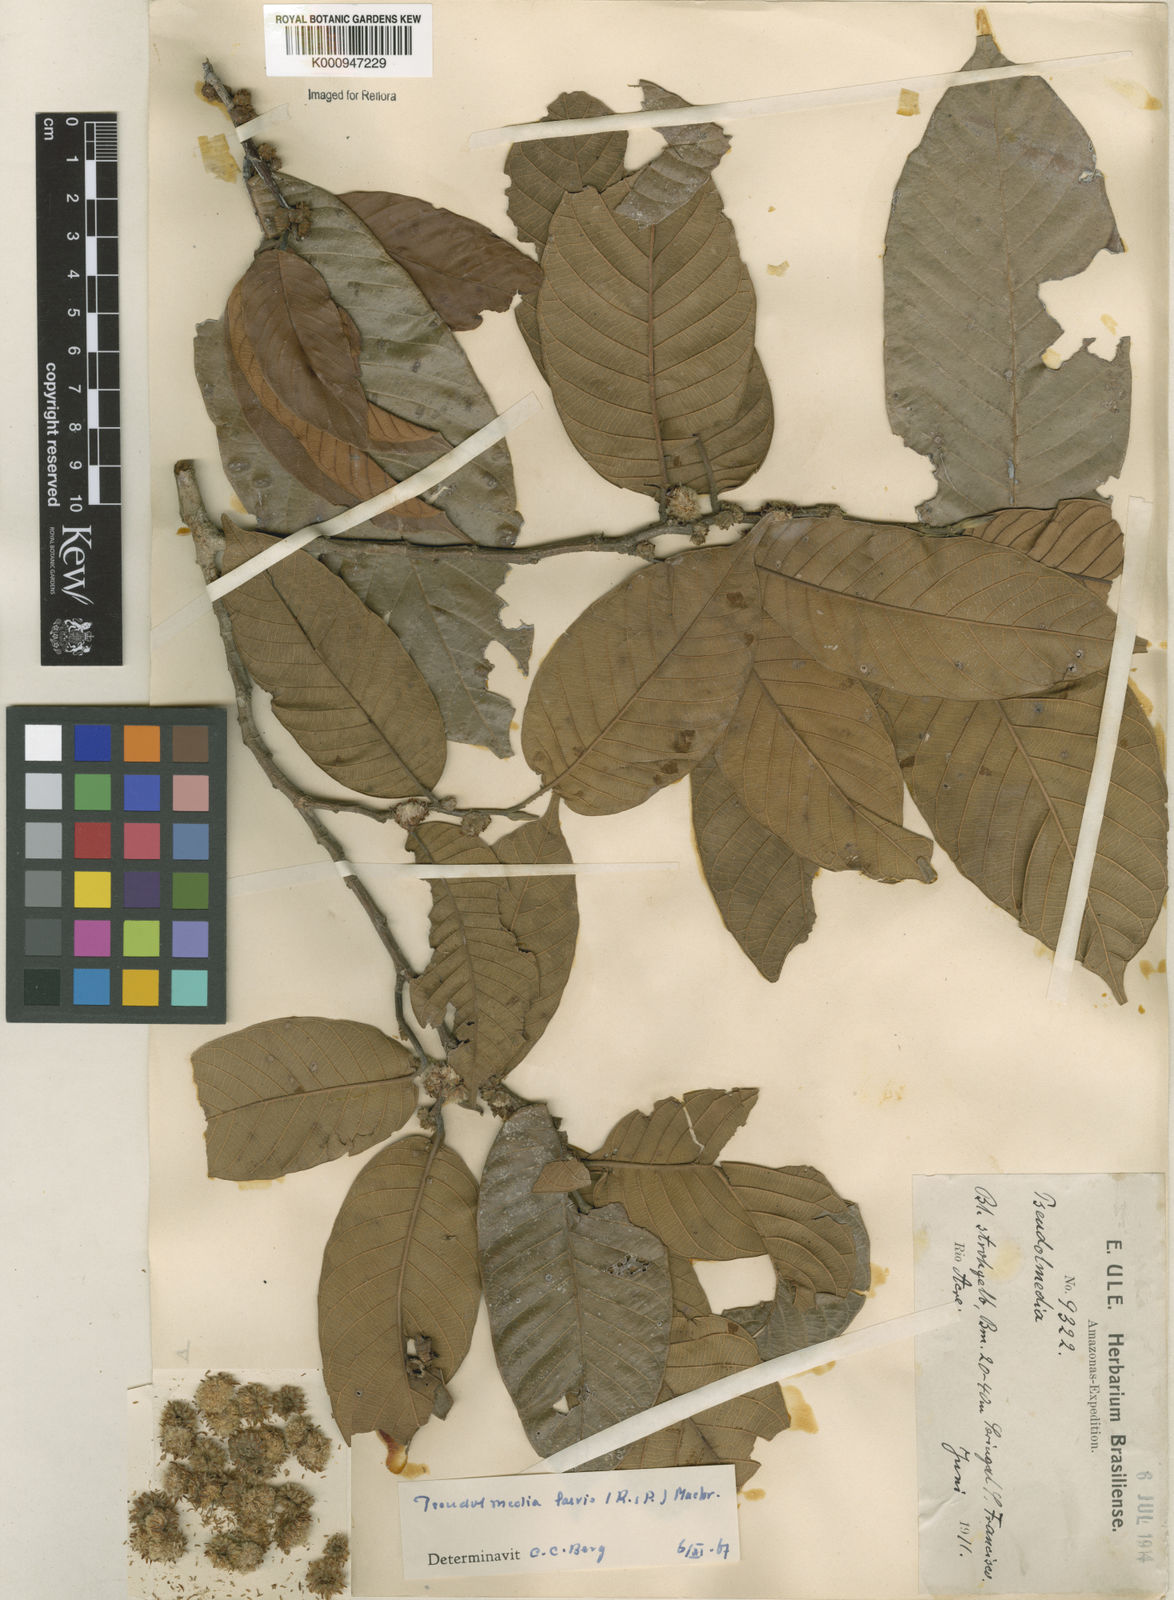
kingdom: Plantae
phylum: Tracheophyta
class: Magnoliopsida
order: Rosales
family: Moraceae
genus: Pseudolmedia
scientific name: Pseudolmedia laevis
